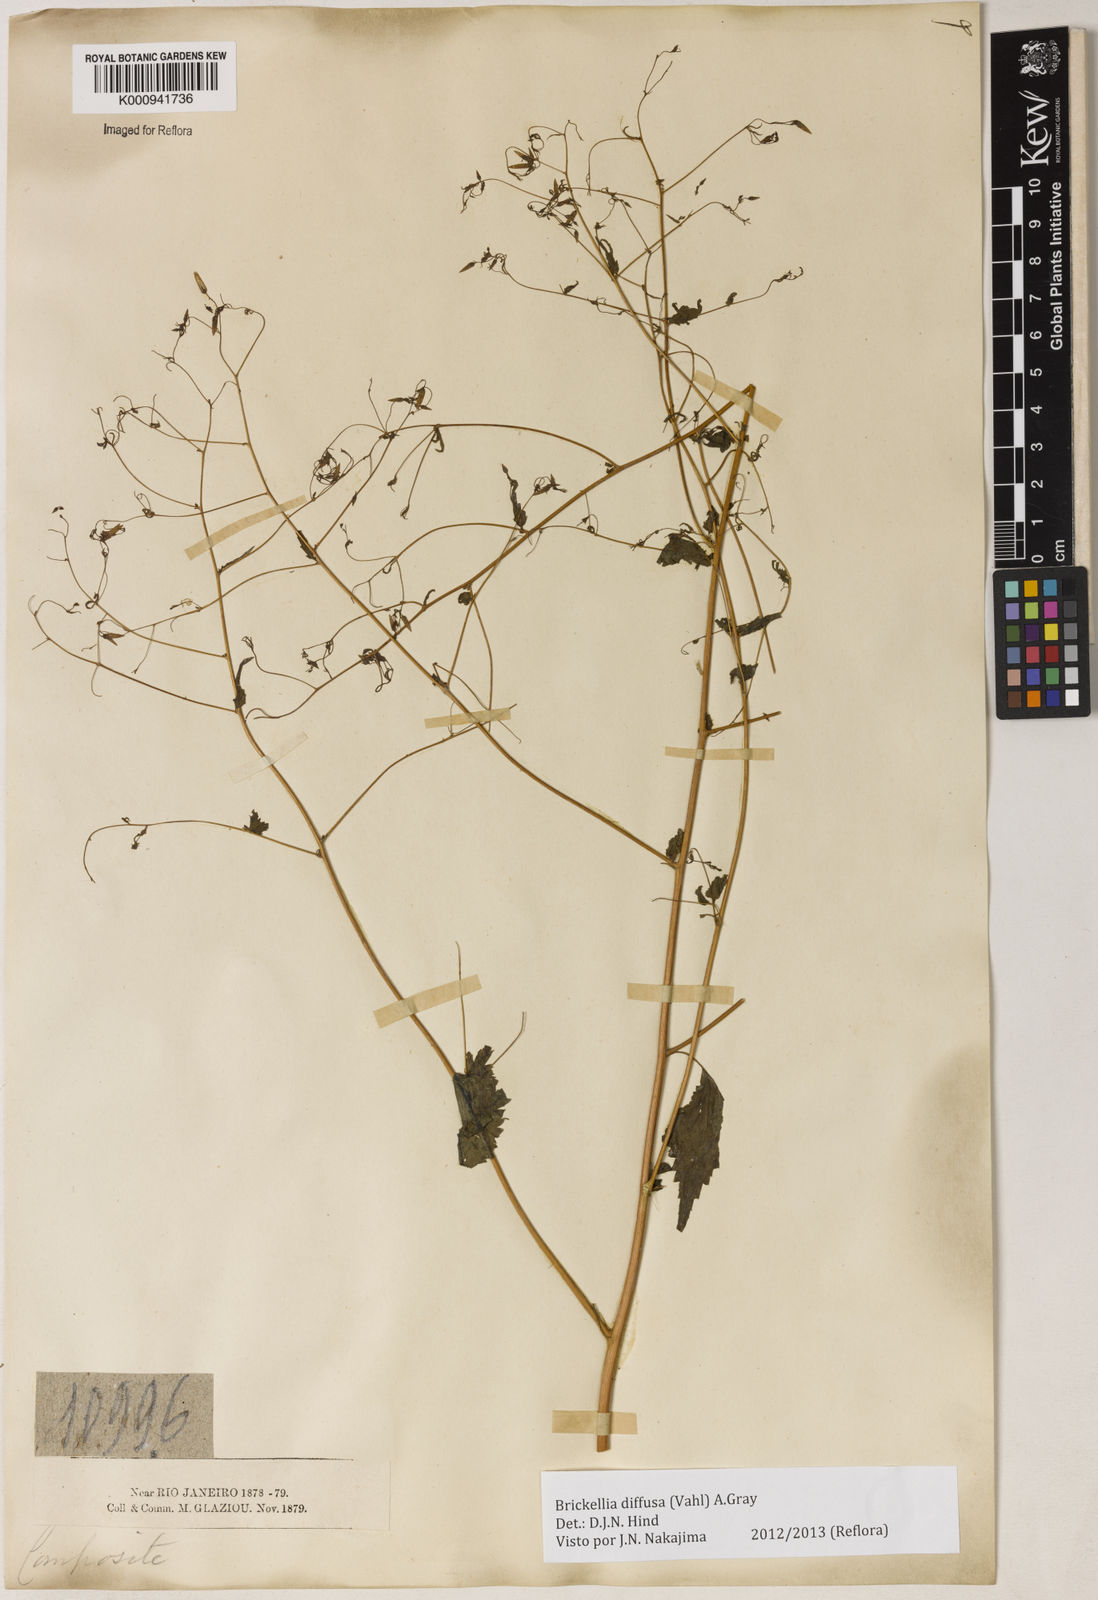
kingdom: Plantae
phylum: Tracheophyta
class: Magnoliopsida
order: Asterales
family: Asteraceae
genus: Brickellia
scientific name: Brickellia diffusa
